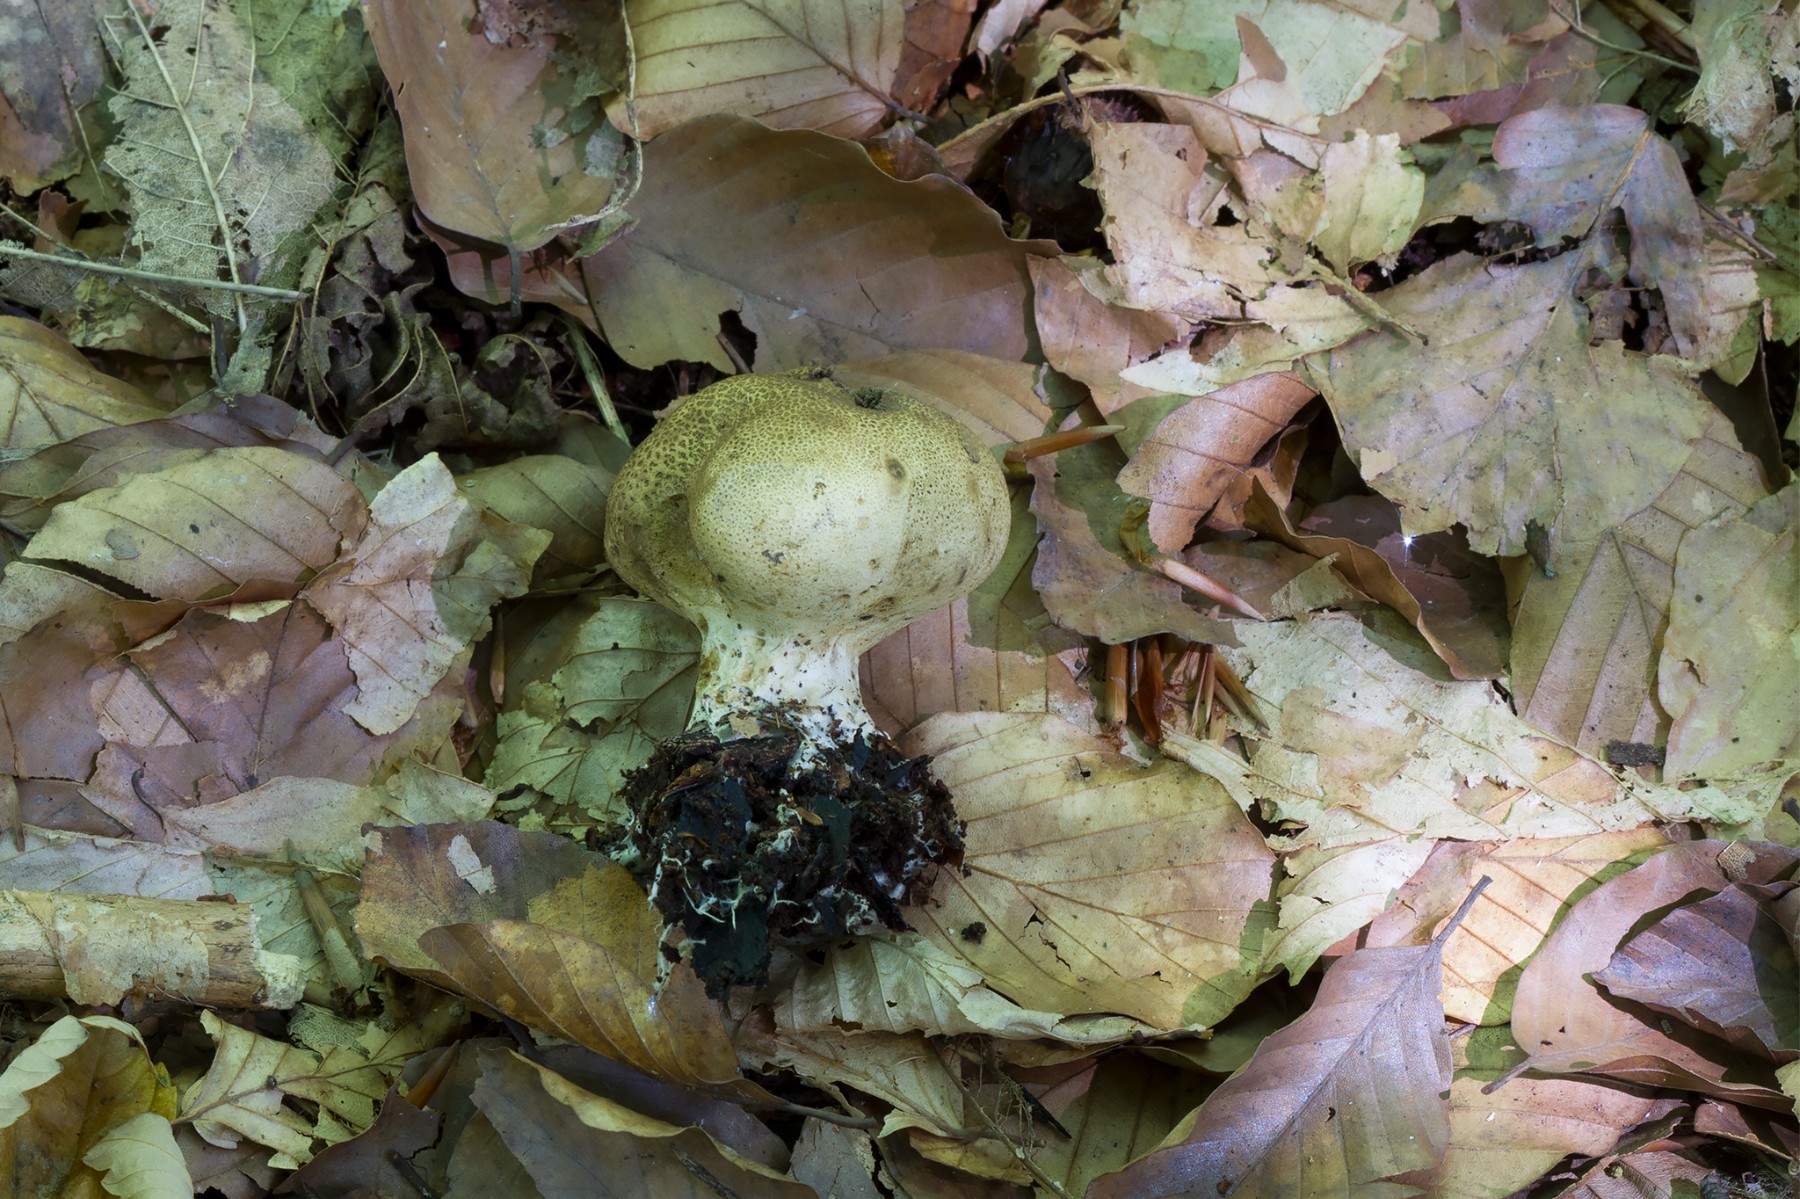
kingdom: Fungi
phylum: Basidiomycota
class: Agaricomycetes
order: Boletales
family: Sclerodermataceae
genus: Scleroderma
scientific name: Scleroderma verrucosum
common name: stilket bruskbold
